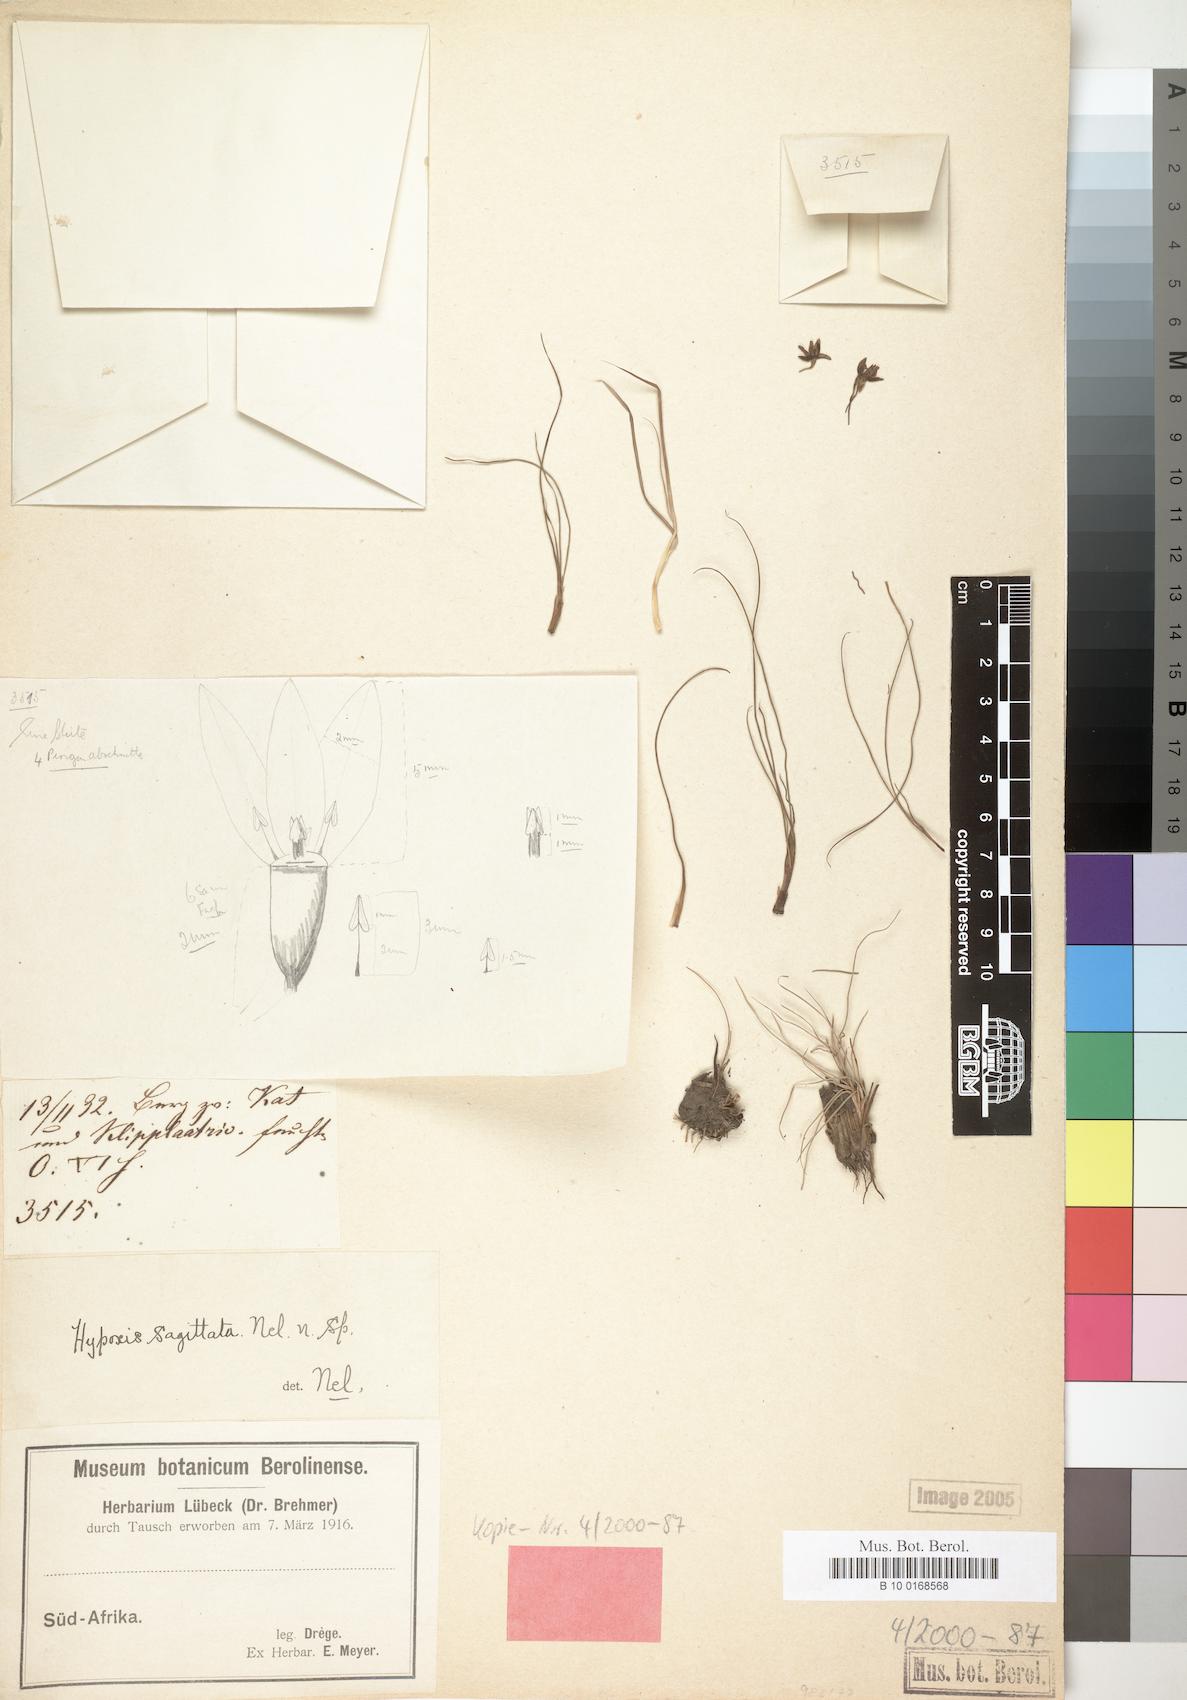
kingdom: Plantae
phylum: Tracheophyta
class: Liliopsida
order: Asparagales
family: Hypoxidaceae
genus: Hypoxis
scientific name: Hypoxis sagittata
